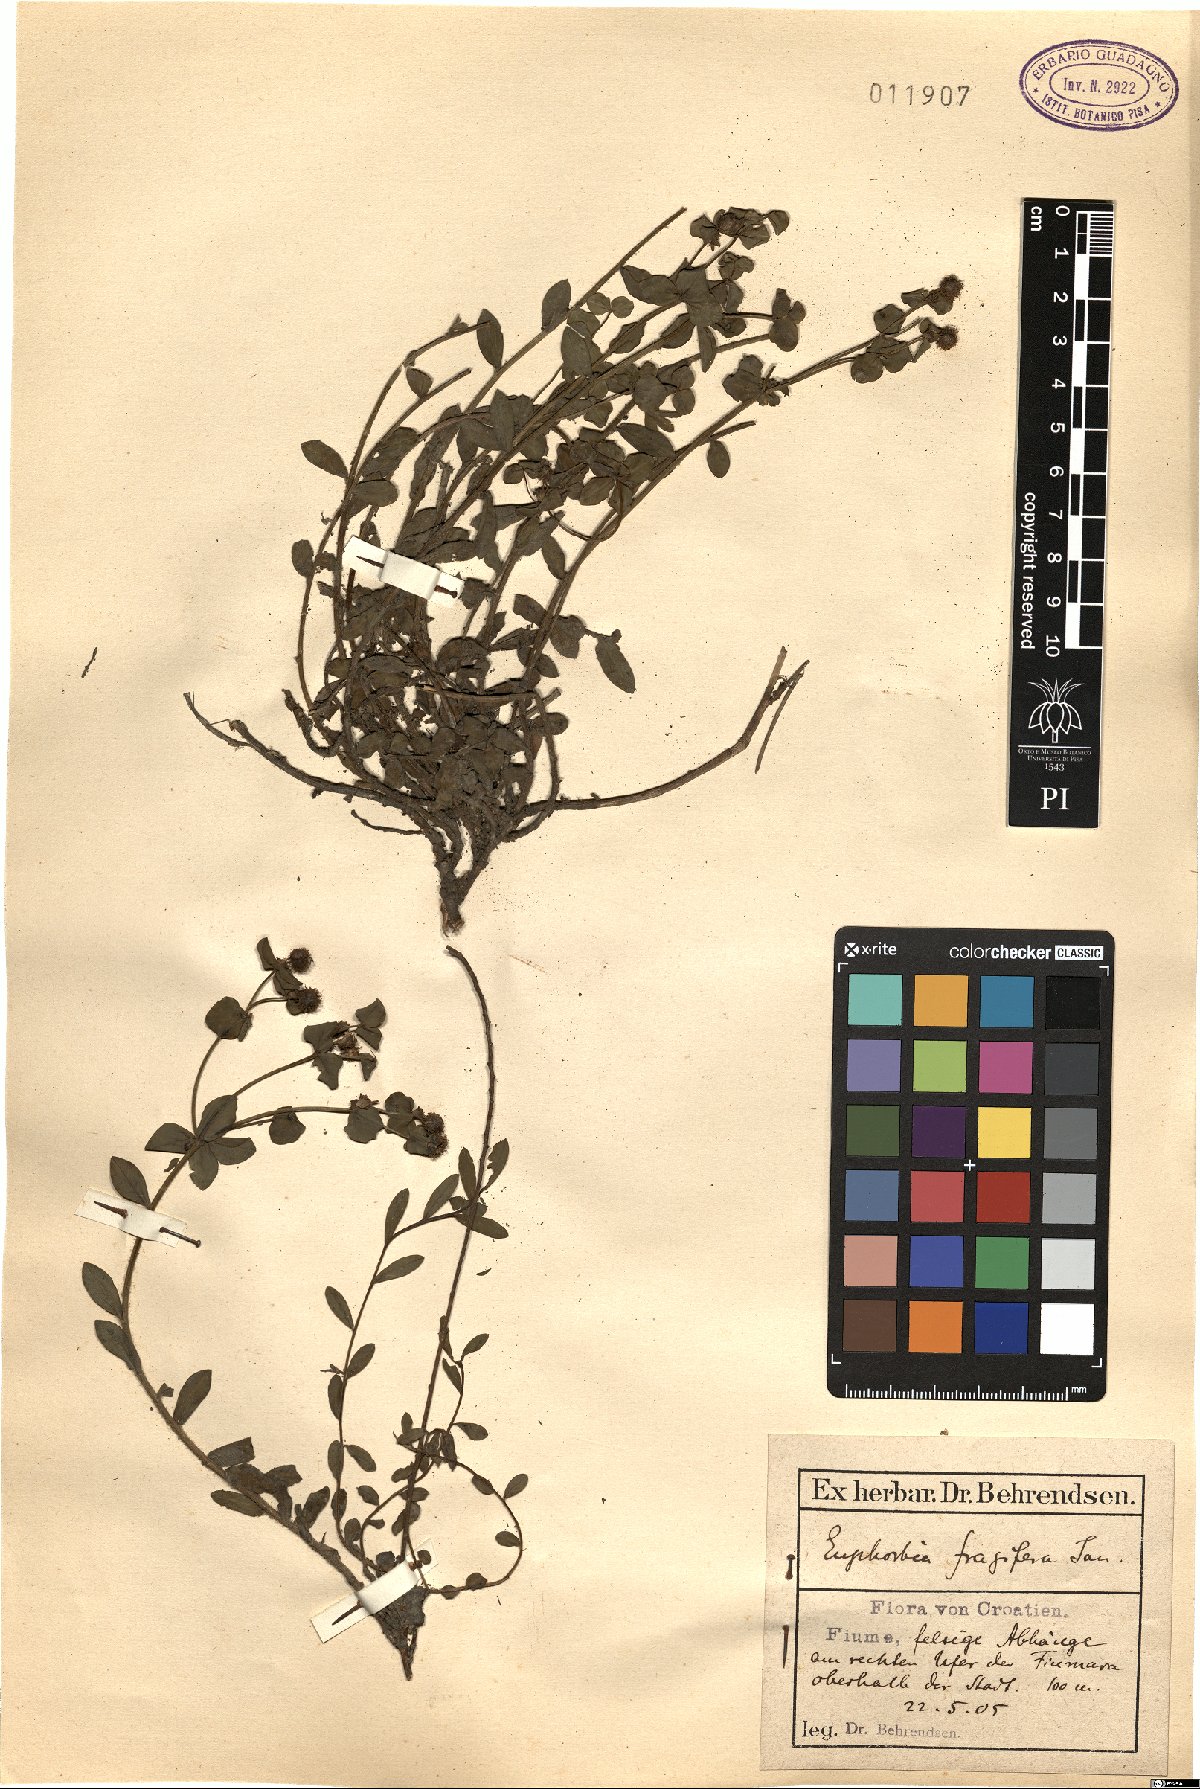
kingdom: Plantae
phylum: Tracheophyta
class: Magnoliopsida
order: Malpighiales
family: Euphorbiaceae
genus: Euphorbia
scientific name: Euphorbia fragifera
